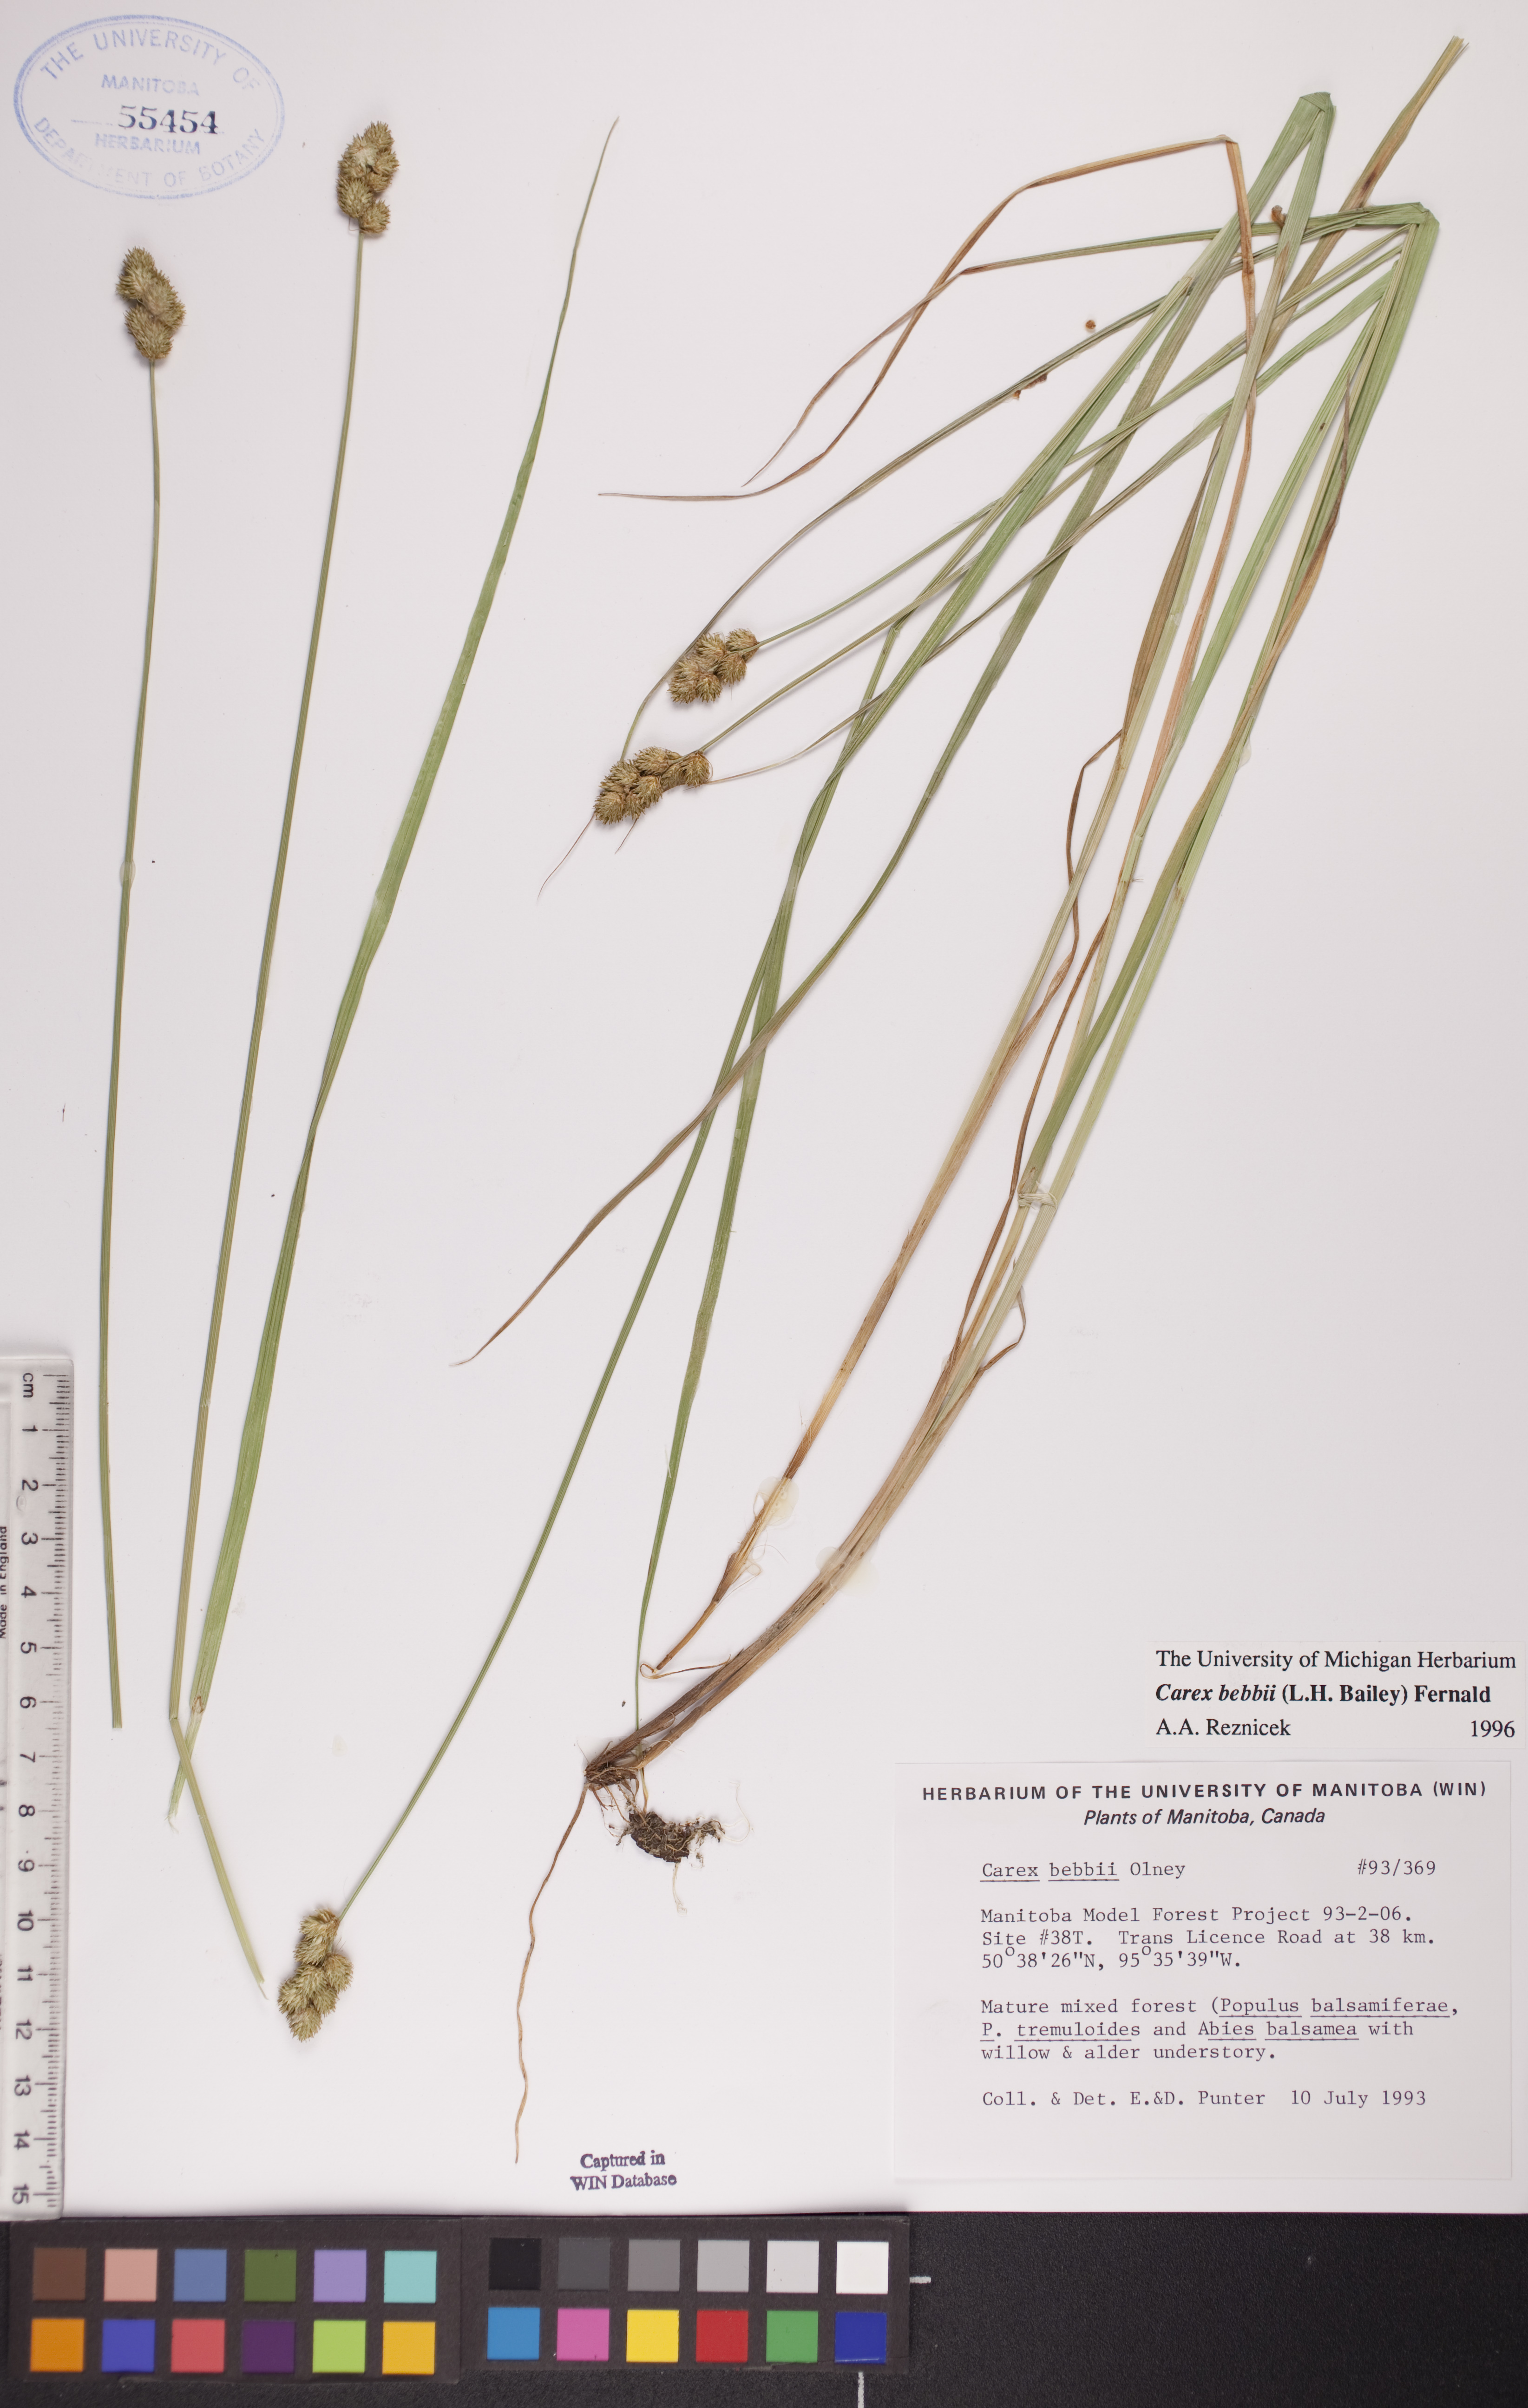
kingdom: Plantae
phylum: Tracheophyta
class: Liliopsida
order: Poales
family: Cyperaceae
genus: Carex
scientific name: Carex bebbii
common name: Bebb's sedge
